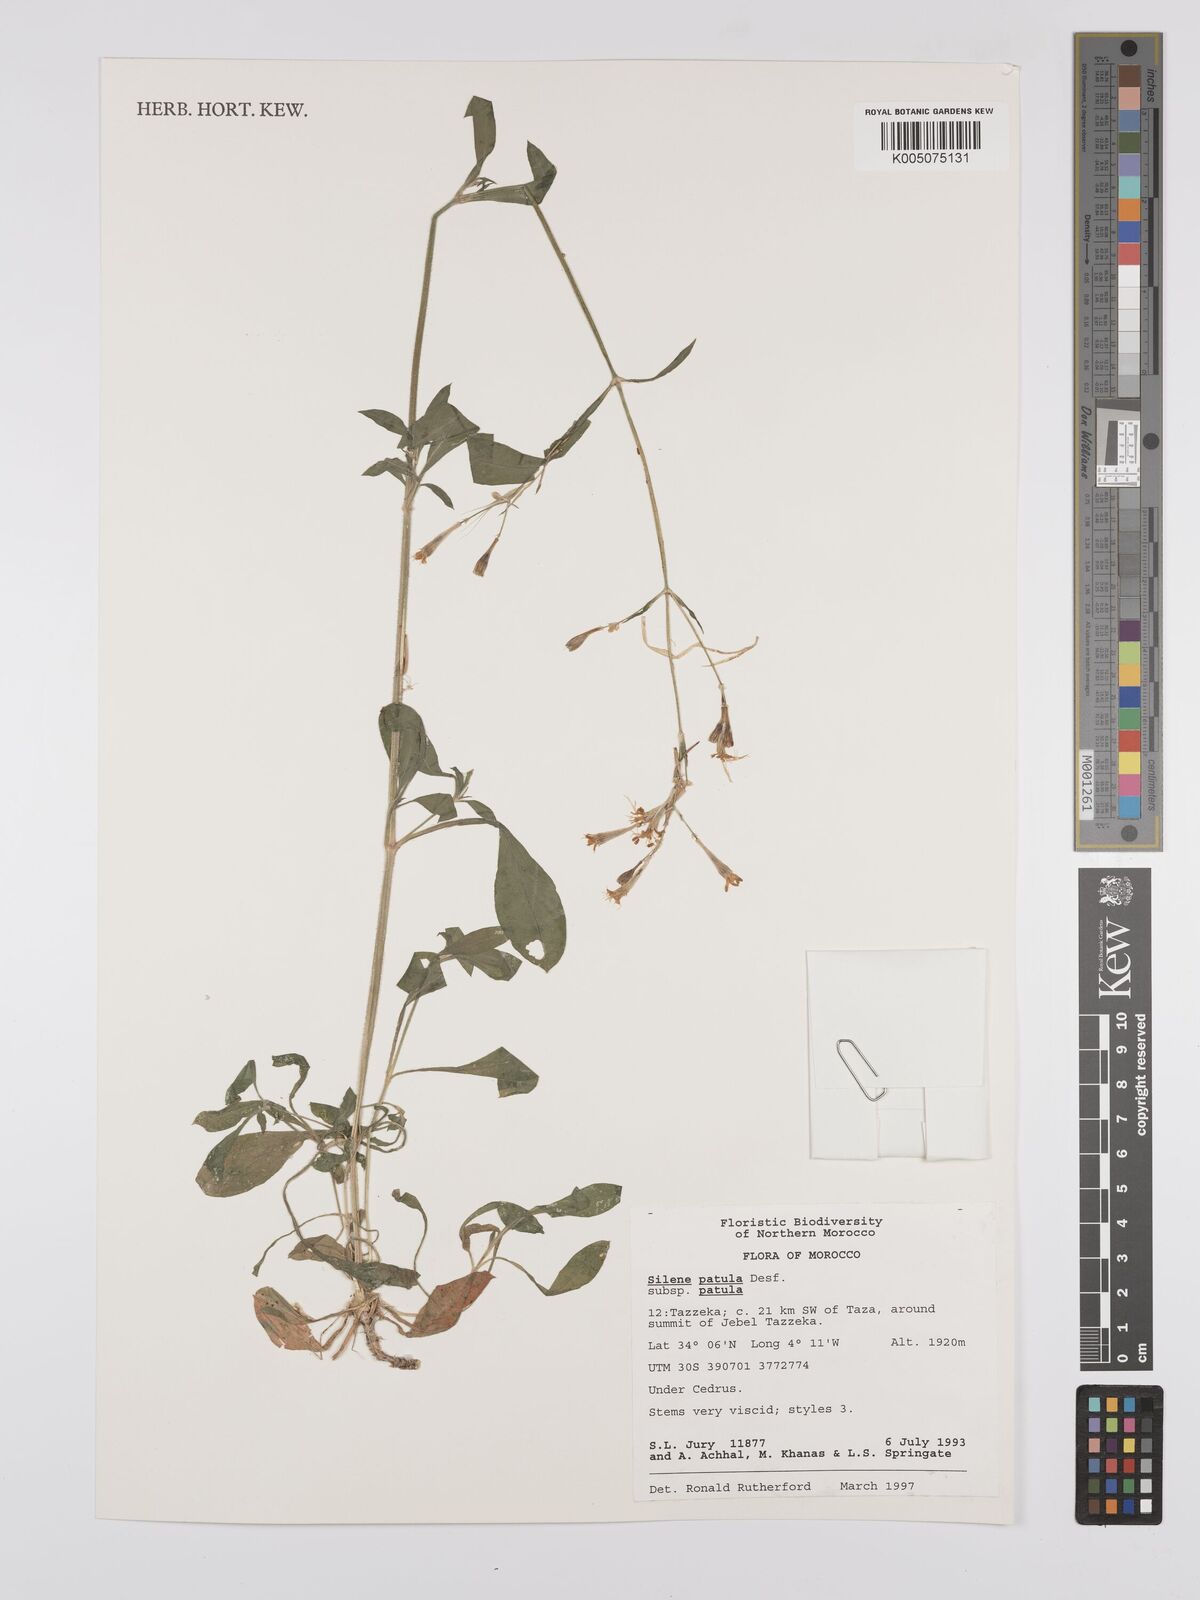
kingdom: Plantae
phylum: Tracheophyta
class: Magnoliopsida
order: Caryophyllales
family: Caryophyllaceae
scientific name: Caryophyllaceae
